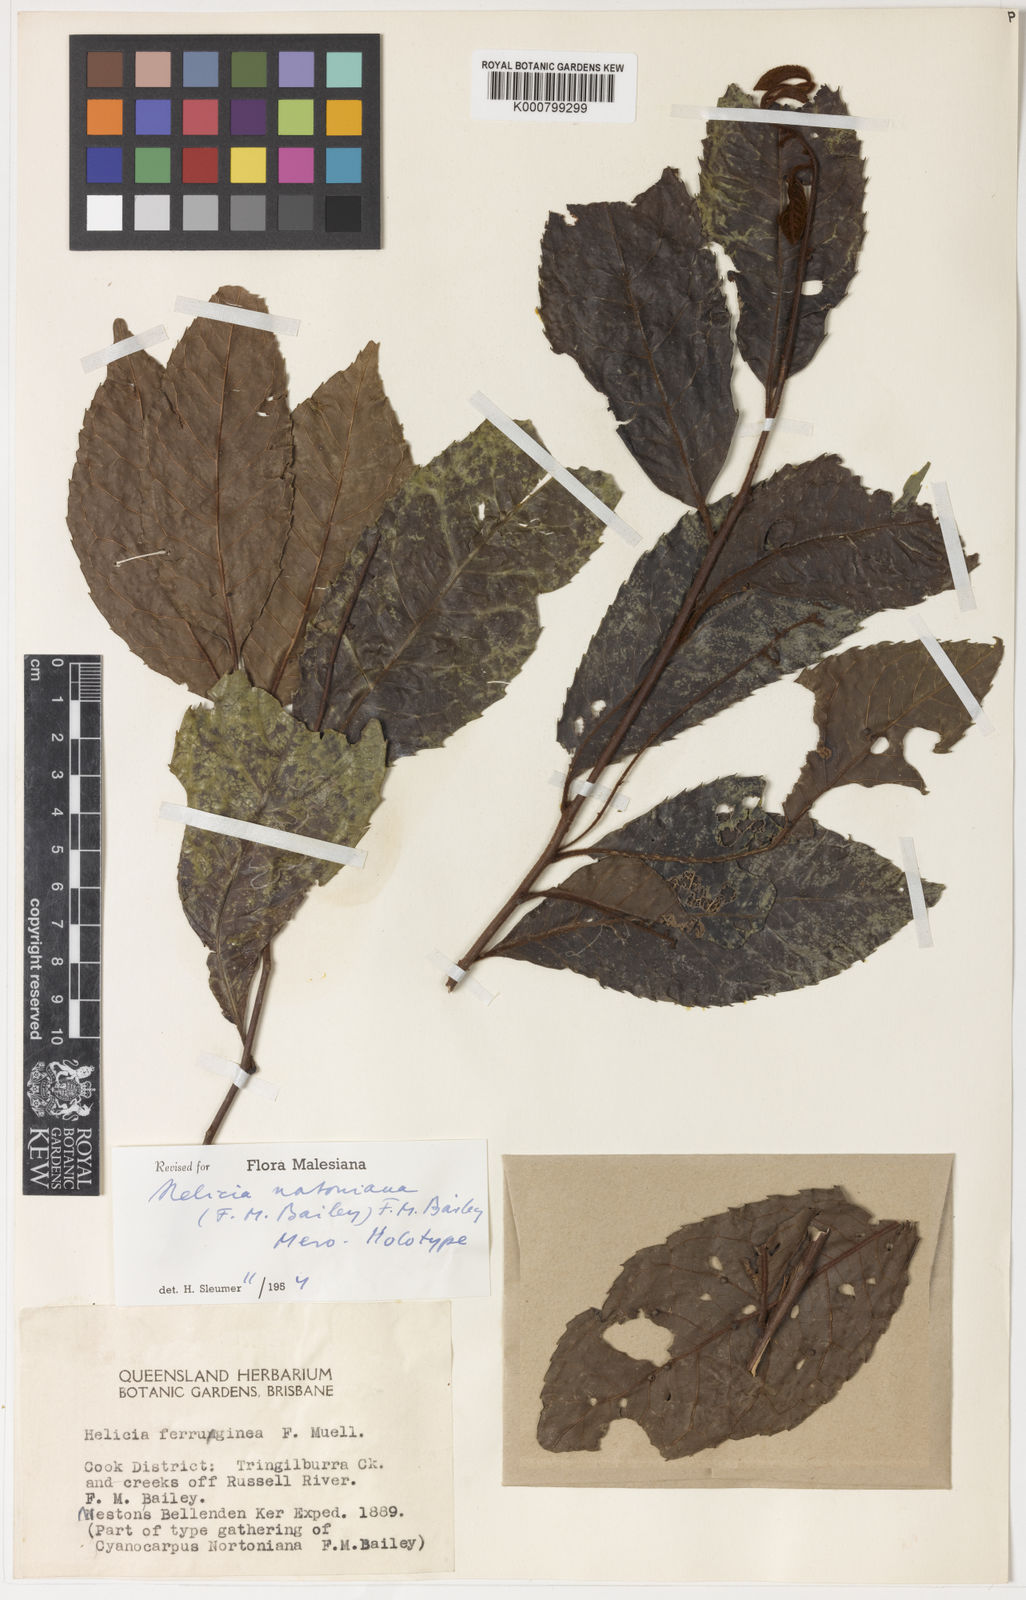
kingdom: Plantae
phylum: Tracheophyta
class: Magnoliopsida
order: Proteales
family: Proteaceae
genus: Helicia
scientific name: Helicia nortoniana
